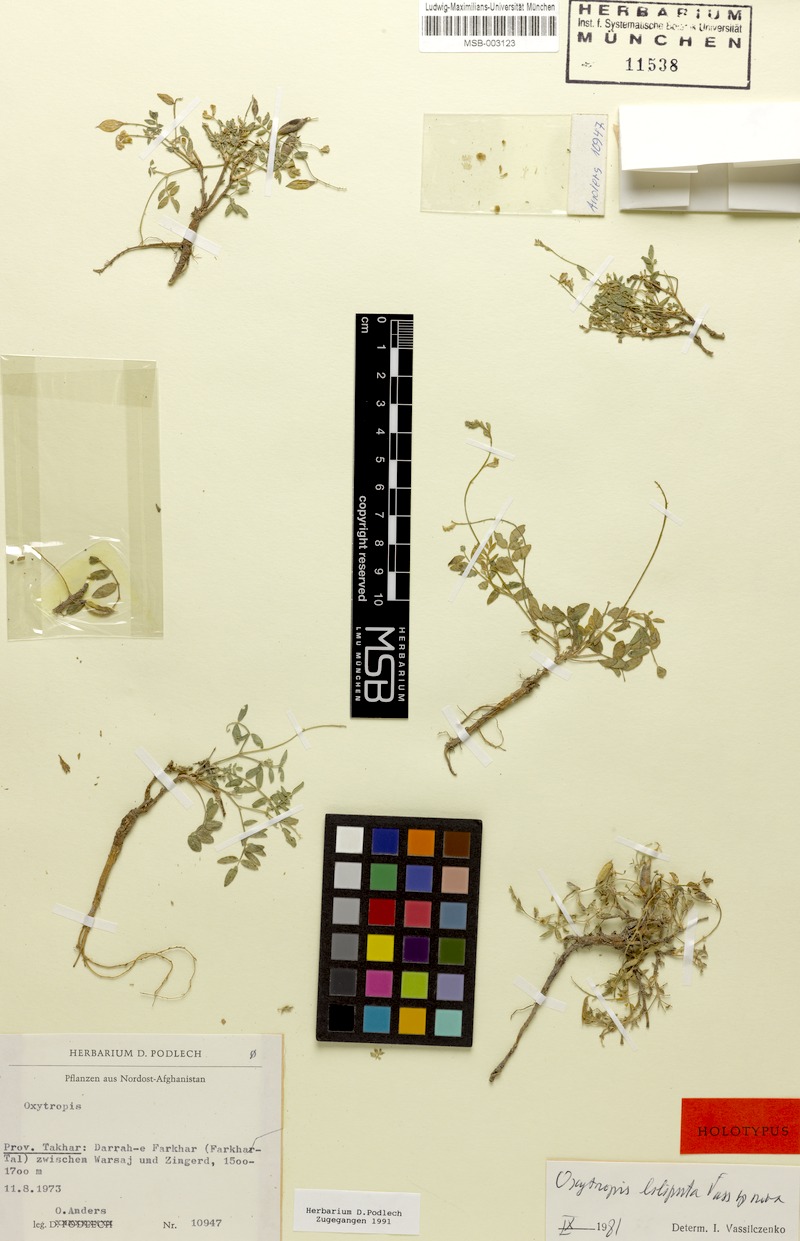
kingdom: Plantae
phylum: Tracheophyta
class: Magnoliopsida
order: Fabales
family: Fabaceae
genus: Oxytropis
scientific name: Oxytropis heratensis
